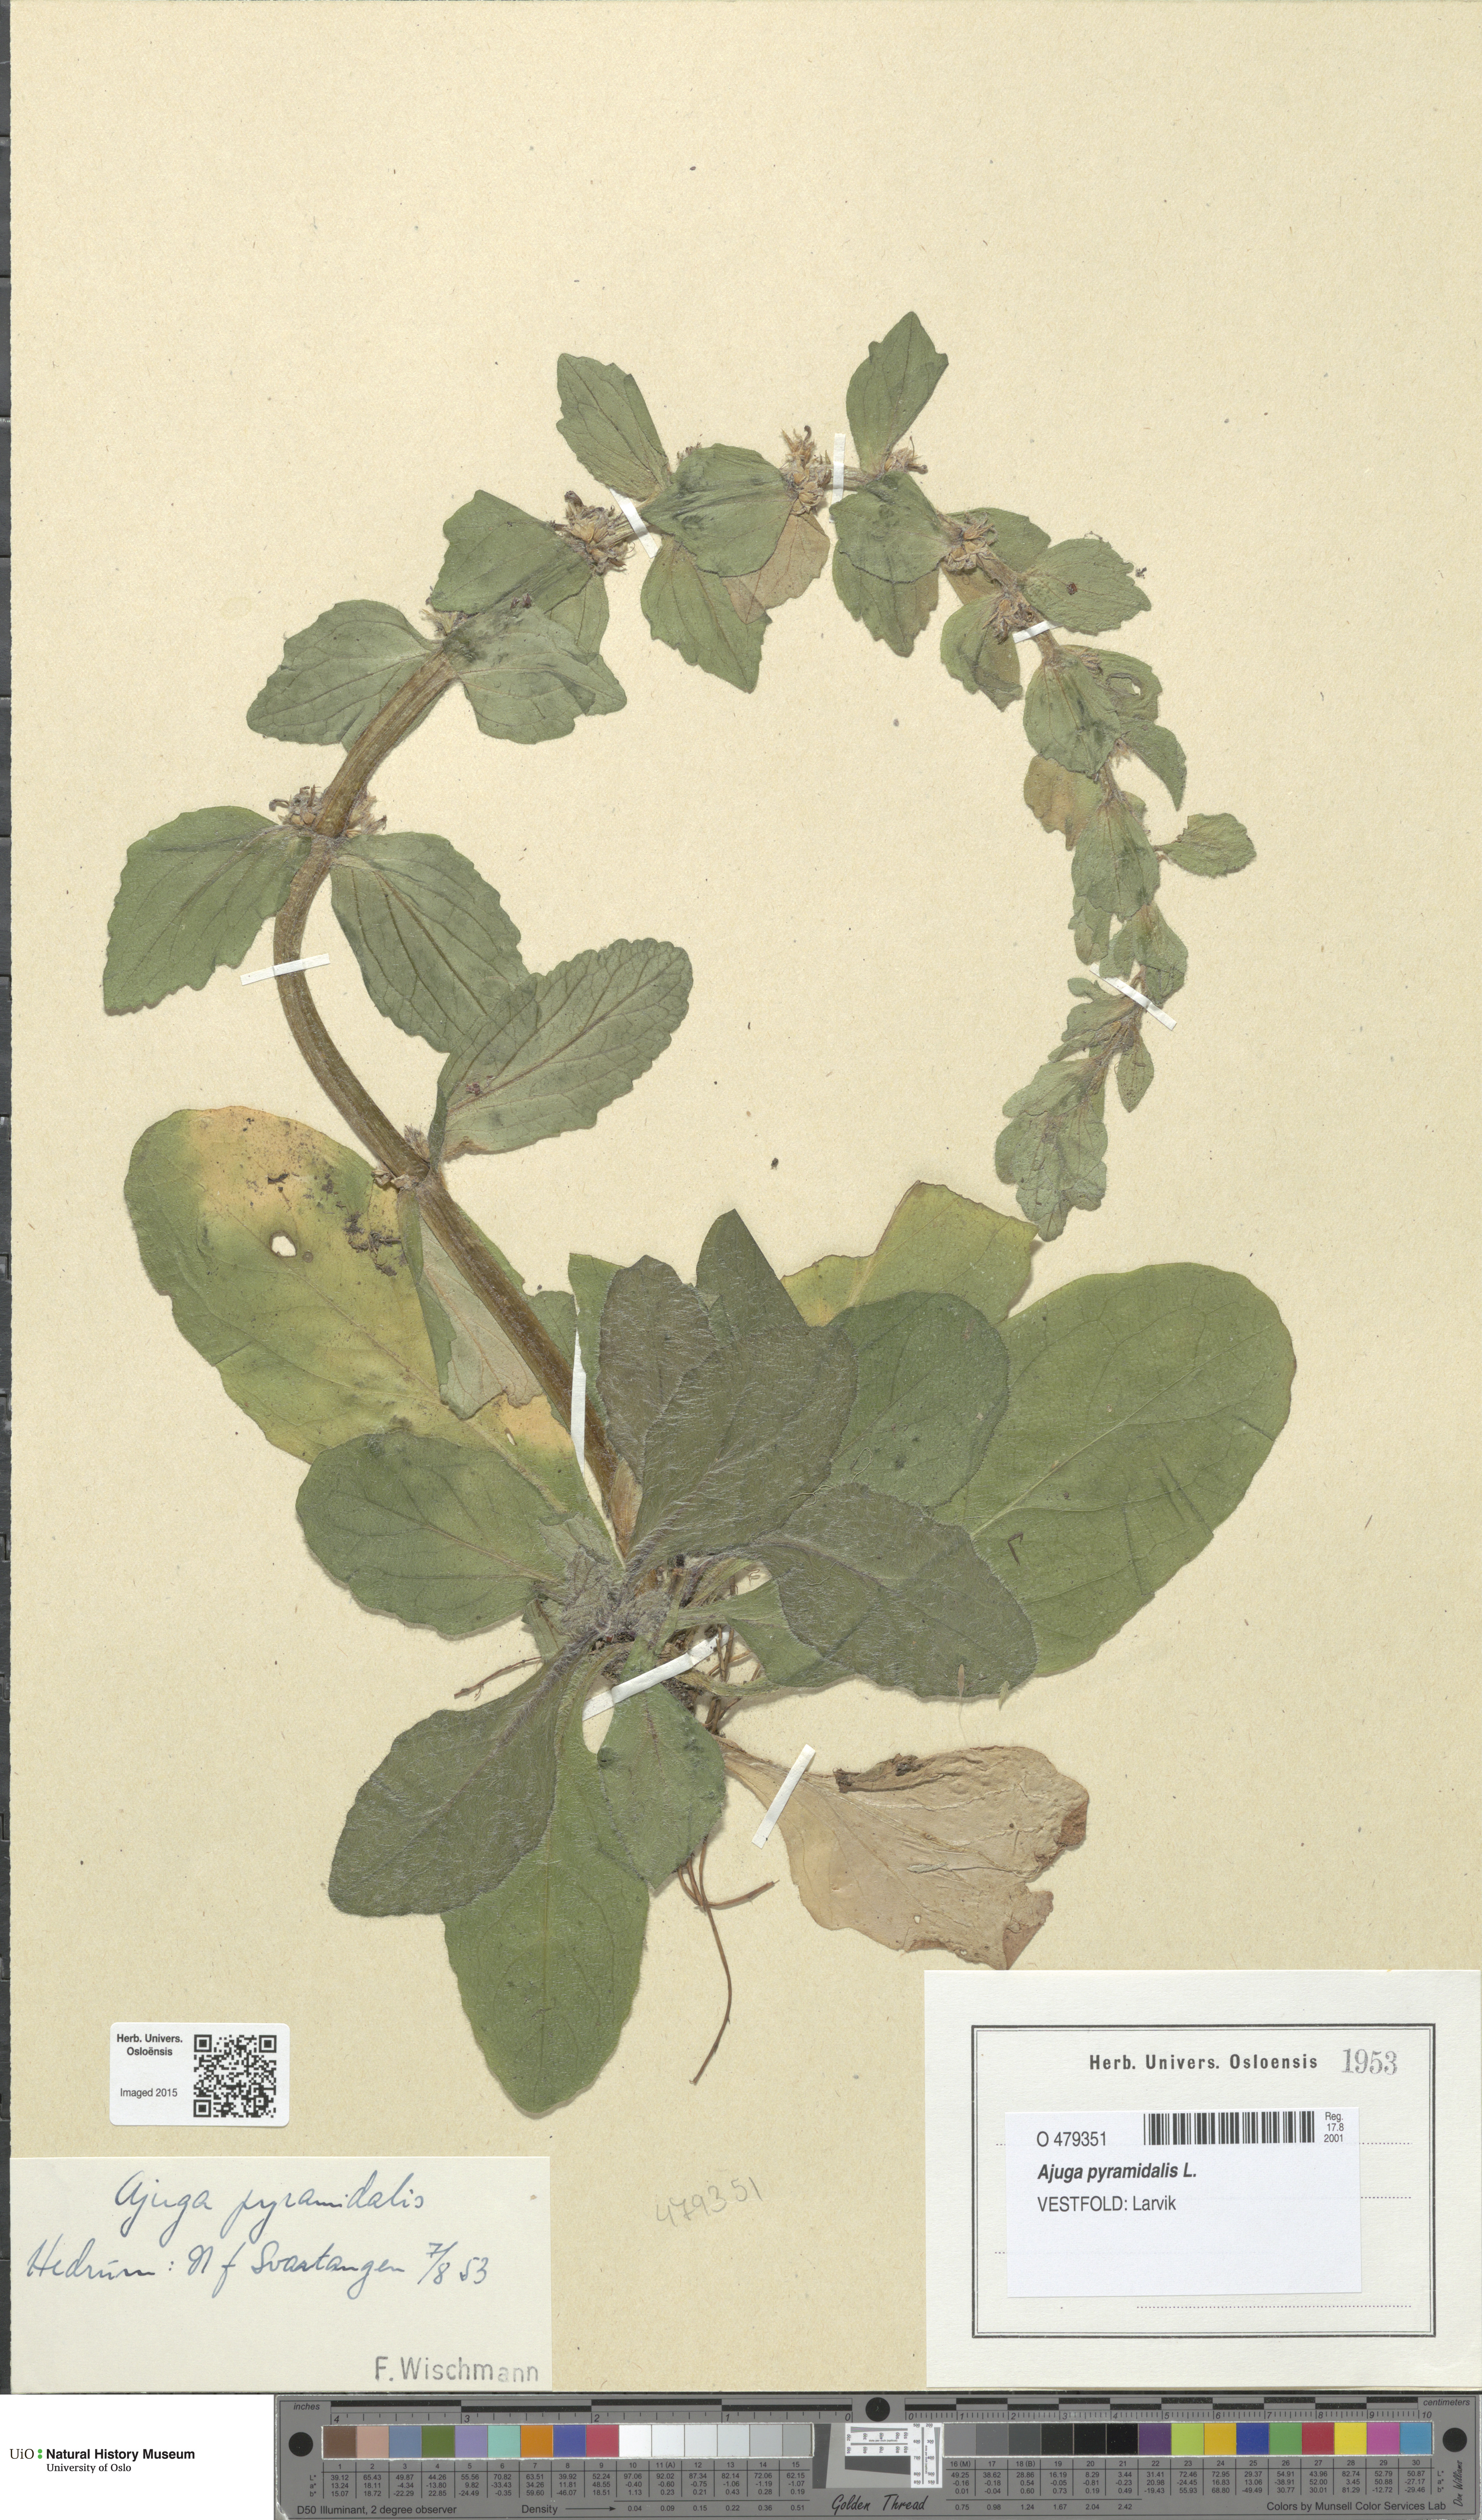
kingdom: Plantae
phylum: Tracheophyta
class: Magnoliopsida
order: Lamiales
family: Lamiaceae
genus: Ajuga
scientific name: Ajuga pyramidalis
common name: Pyramid bugle
